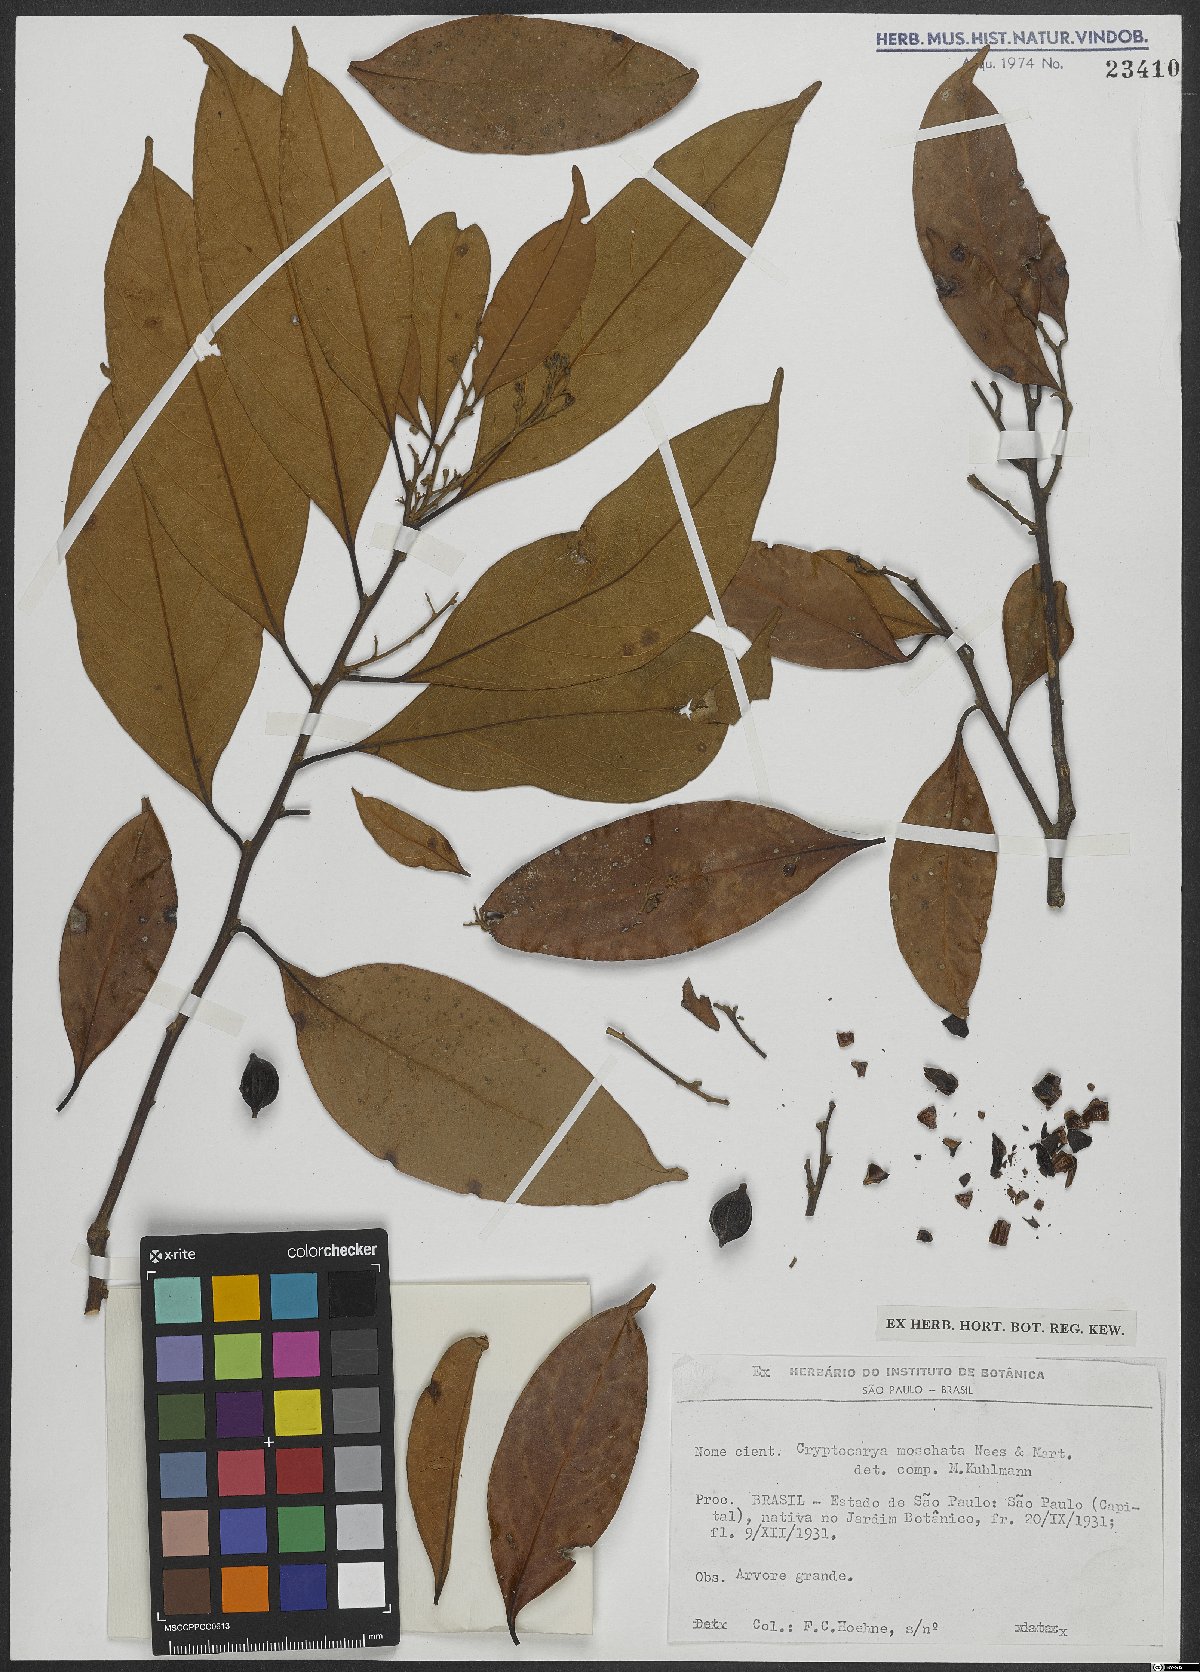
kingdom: Plantae
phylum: Tracheophyta
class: Magnoliopsida
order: Laurales
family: Lauraceae
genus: Cryptocarya
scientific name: Cryptocarya moschata
